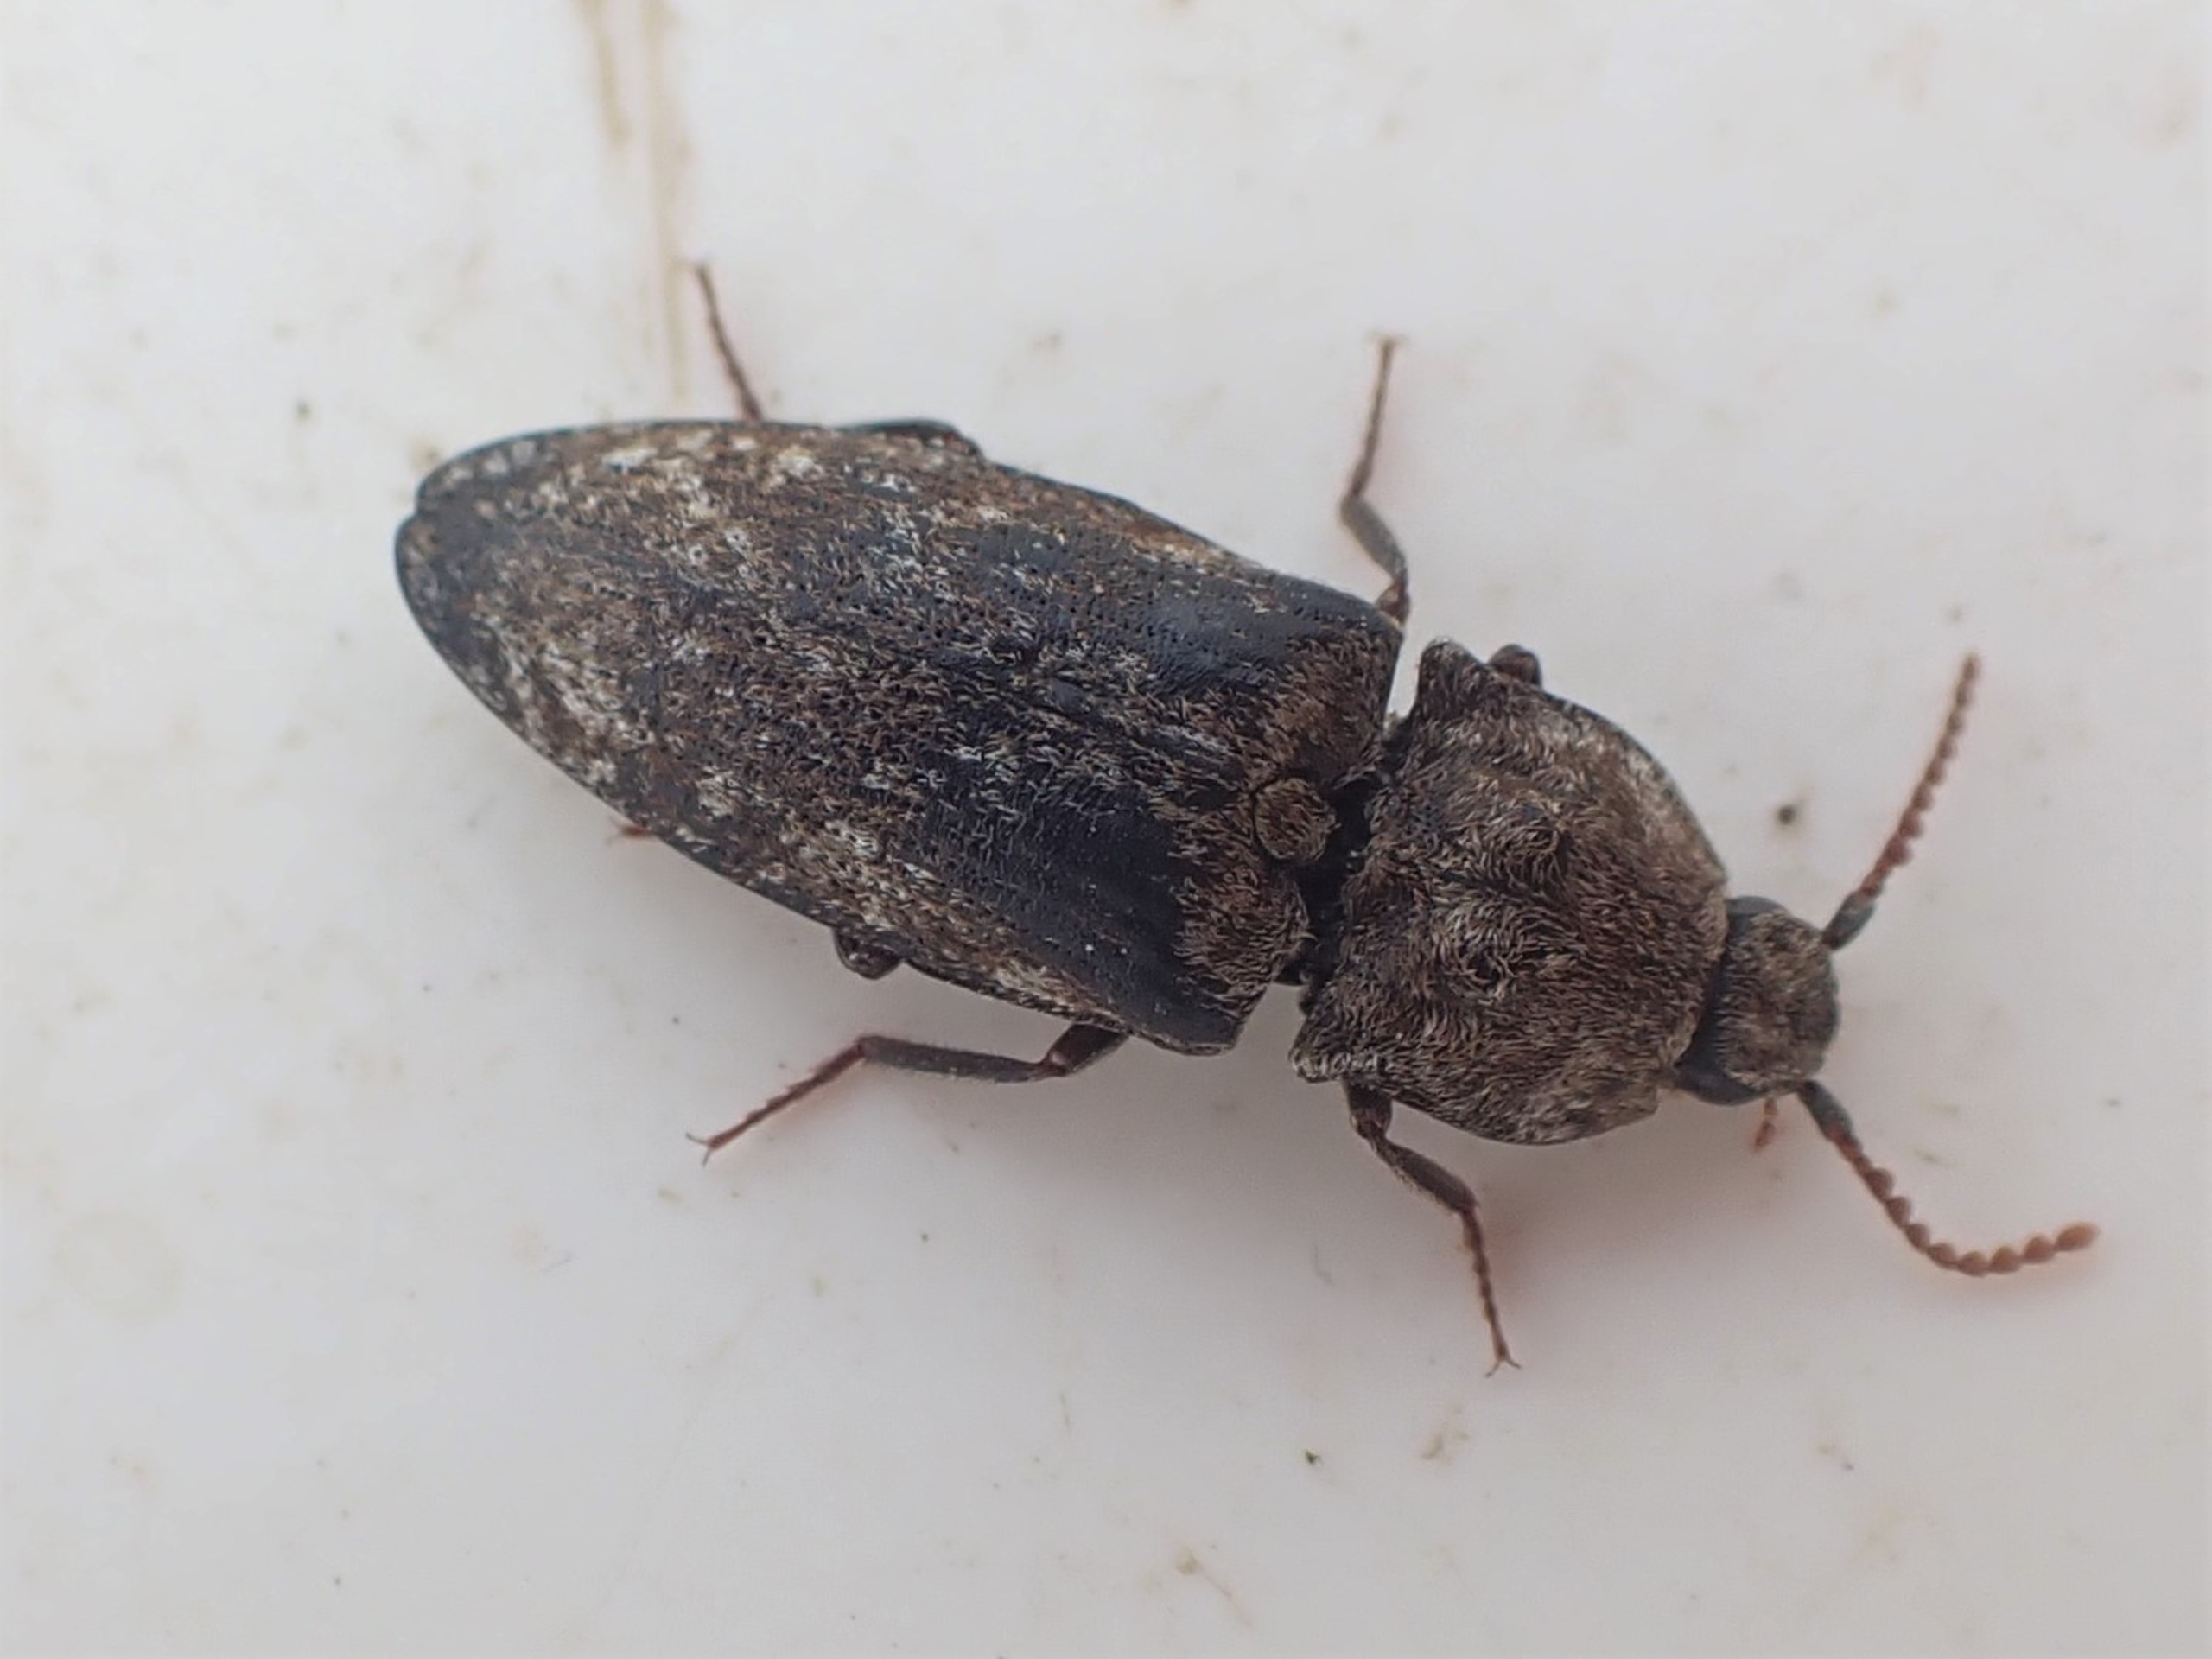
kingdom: Animalia
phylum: Arthropoda
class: Insecta
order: Coleoptera
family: Elateridae
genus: Agrypnus
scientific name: Agrypnus murinus
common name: Musegrå smælder
